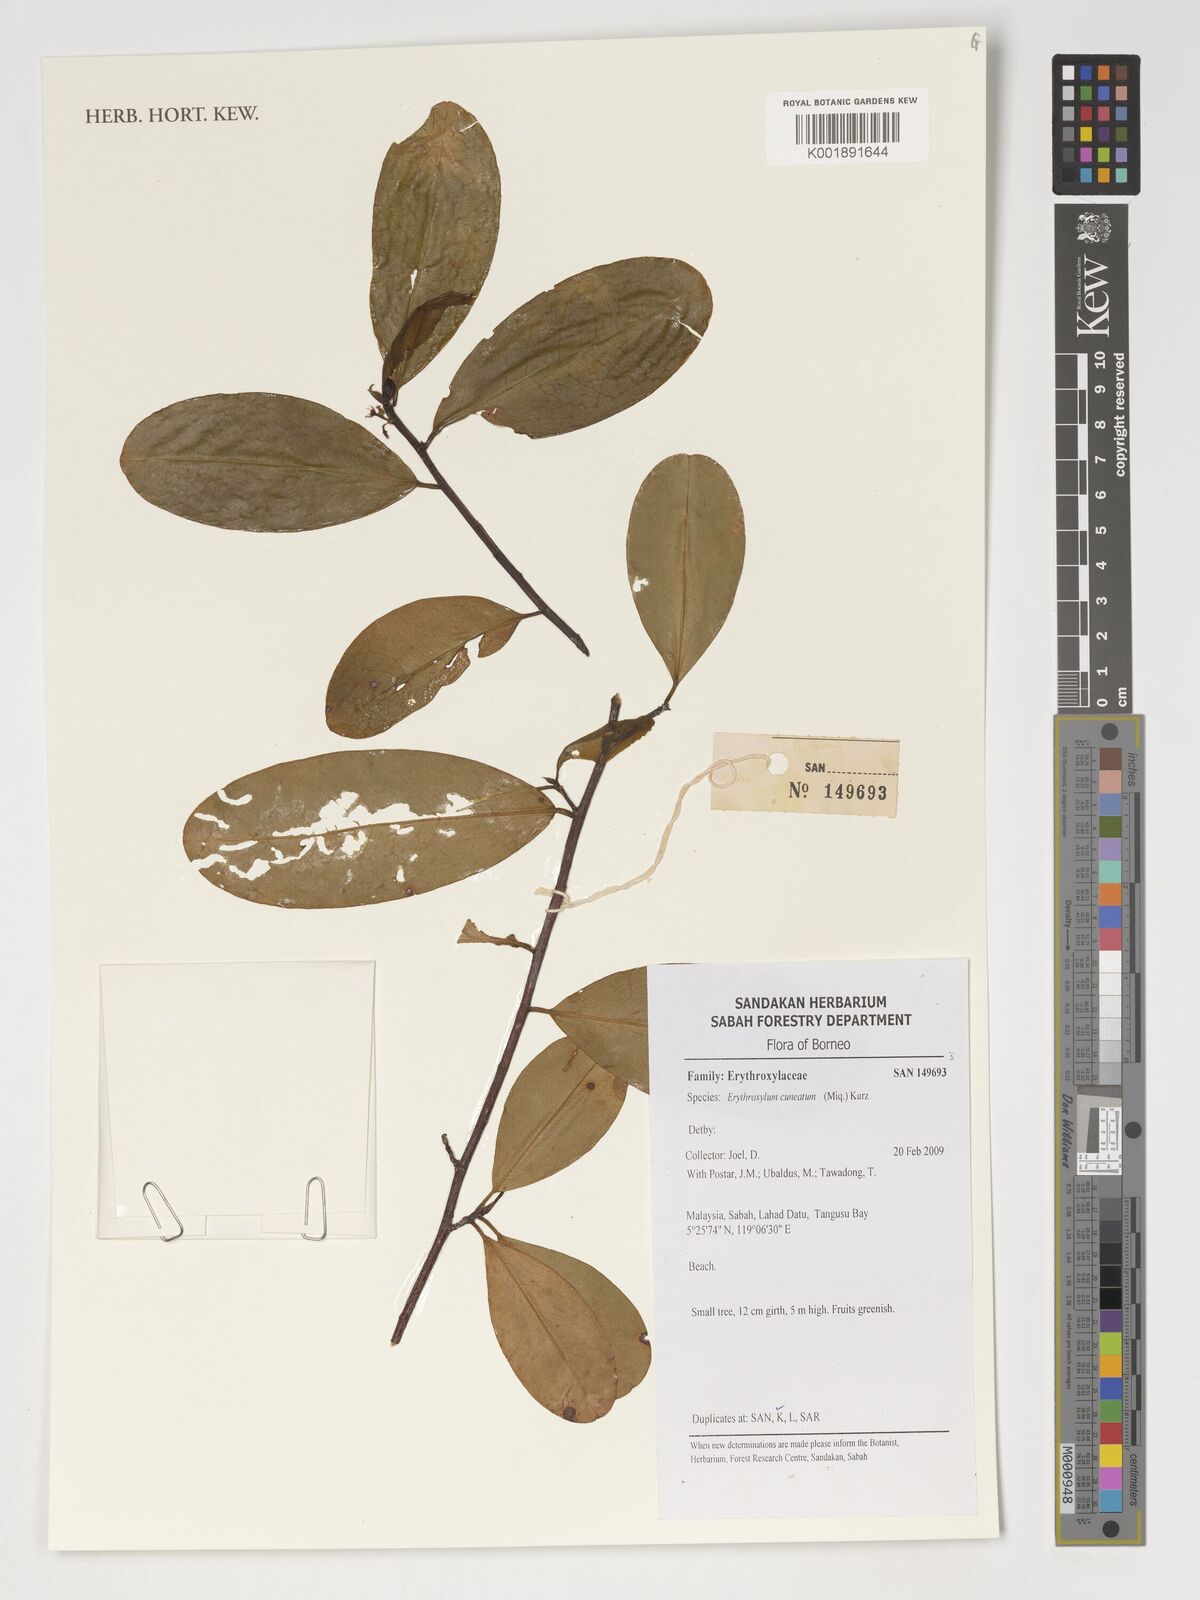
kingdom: Plantae
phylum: Tracheophyta
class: Magnoliopsida
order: Malpighiales
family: Erythroxylaceae
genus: Erythroxylum
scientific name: Erythroxylum cuneatum
